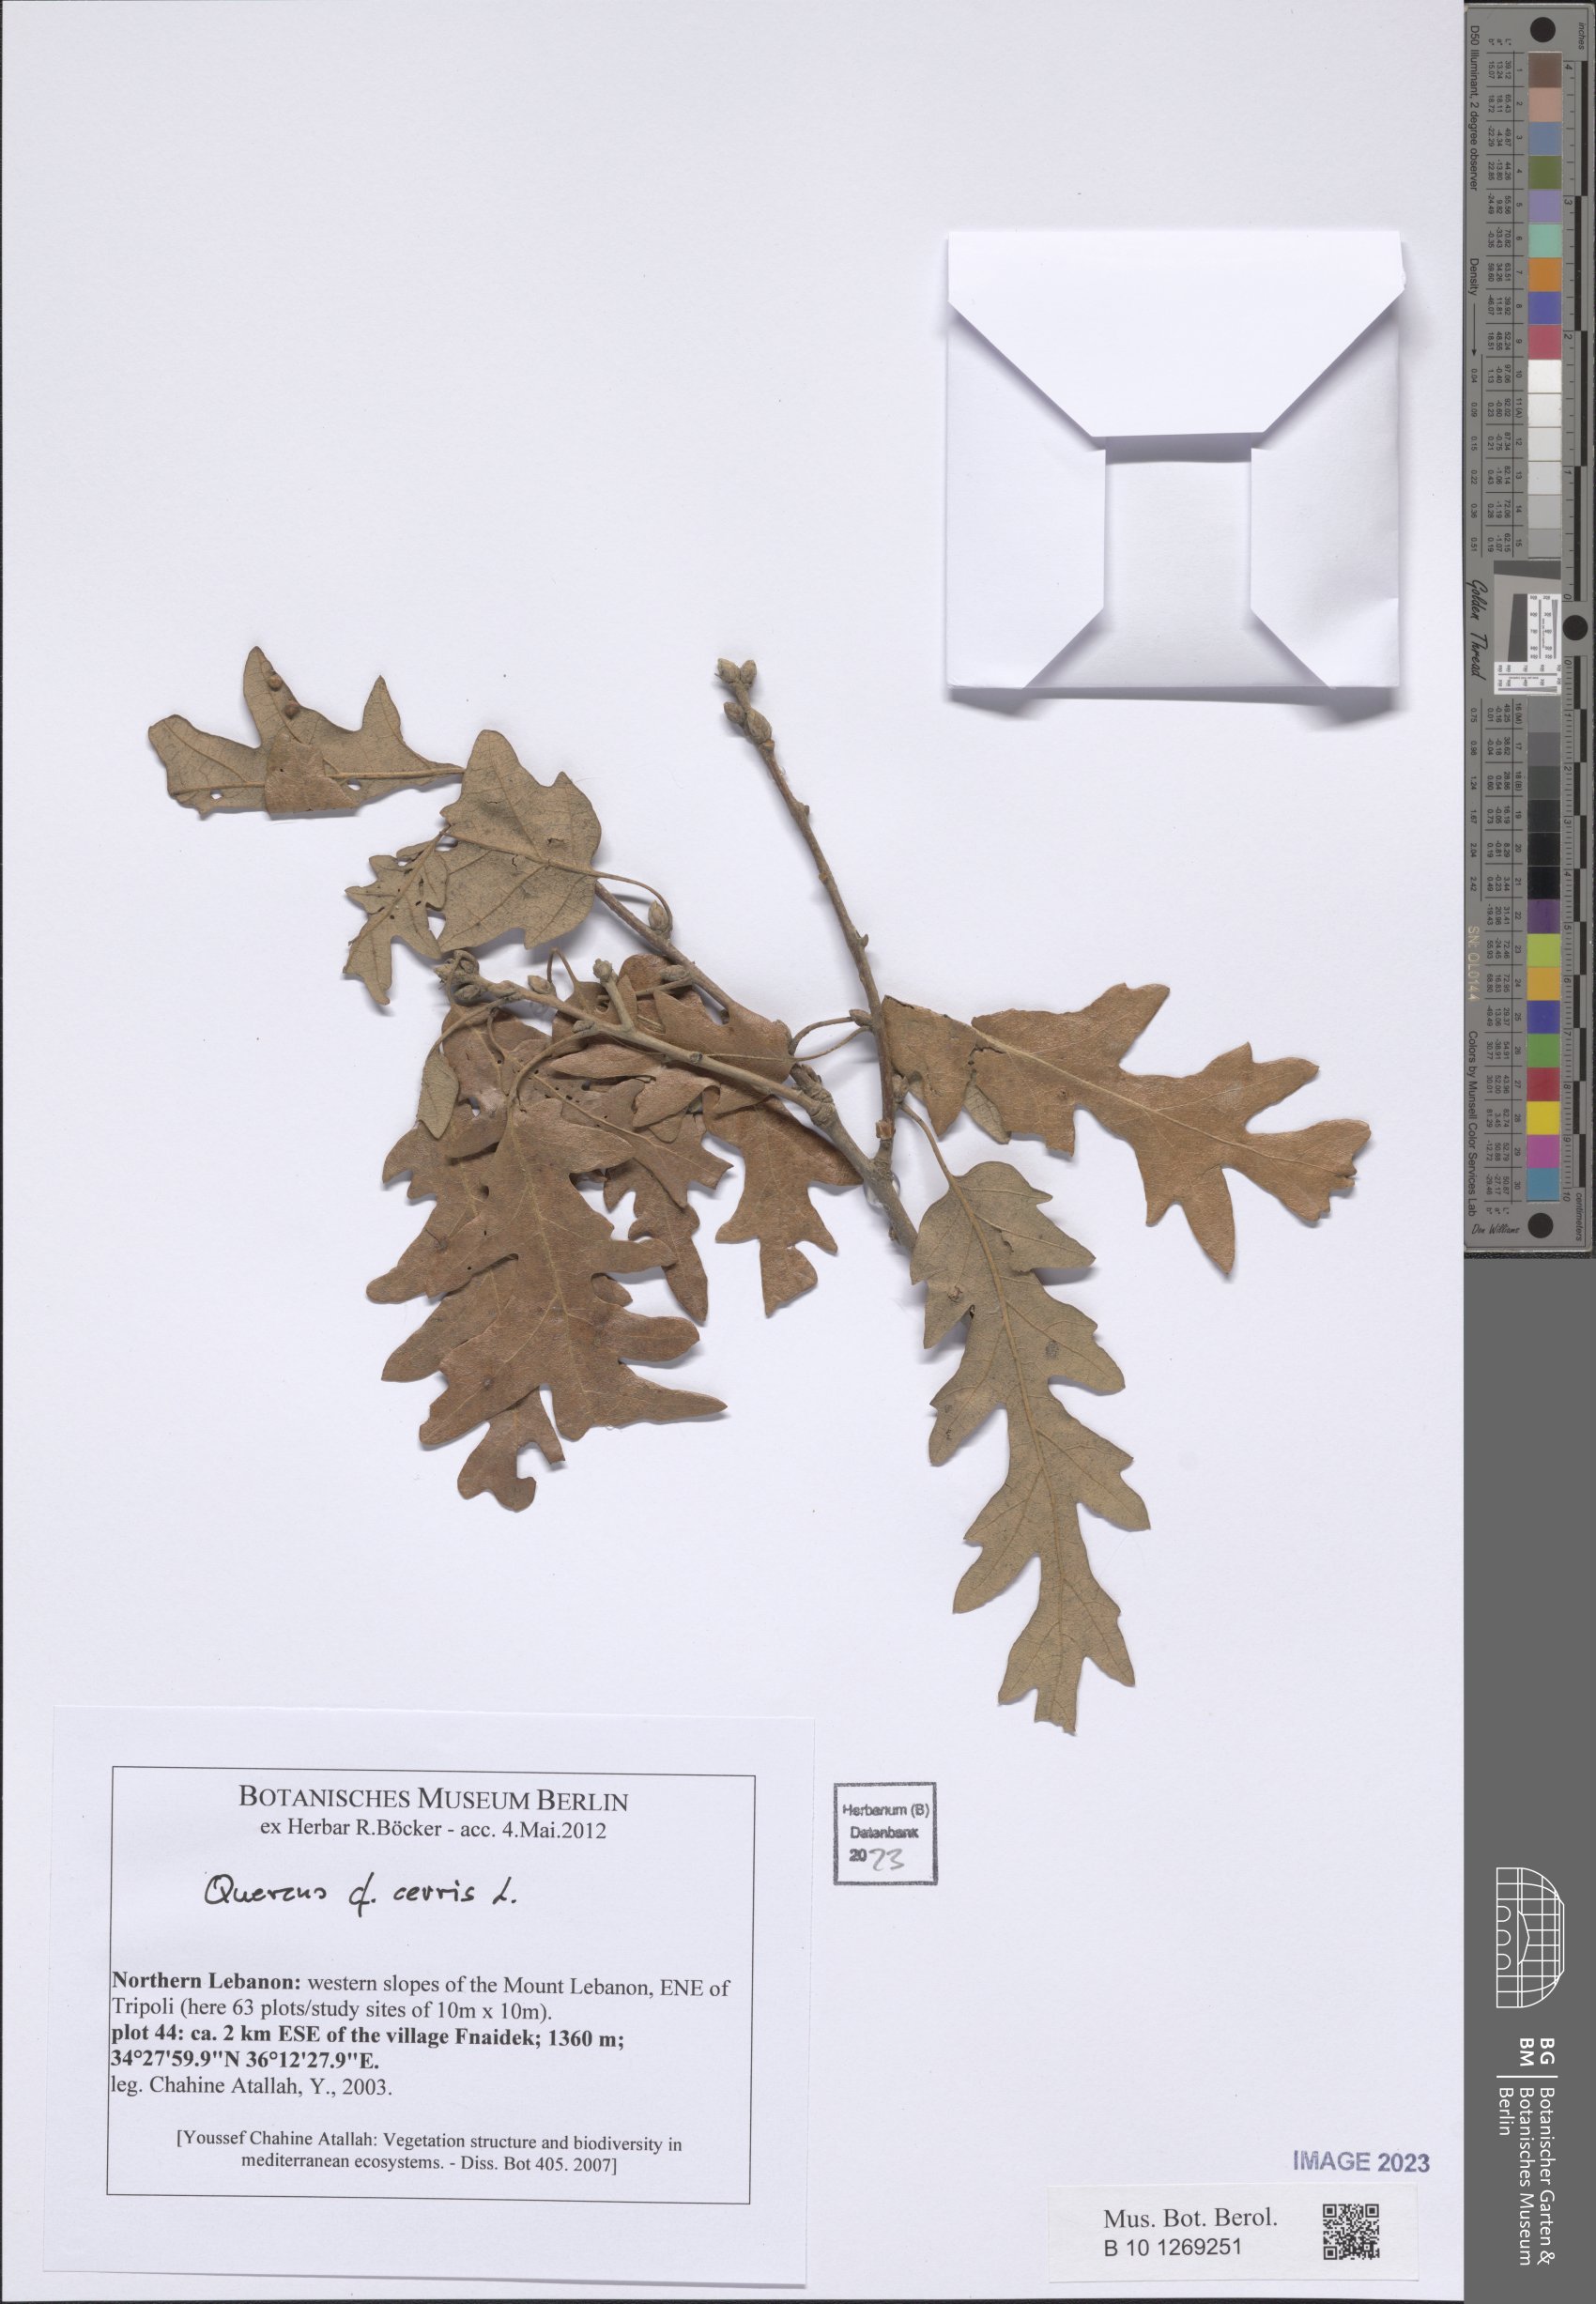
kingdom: Plantae
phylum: Tracheophyta
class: Magnoliopsida
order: Fagales
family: Fagaceae
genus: Quercus
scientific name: Quercus cerris
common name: Turkey oak
